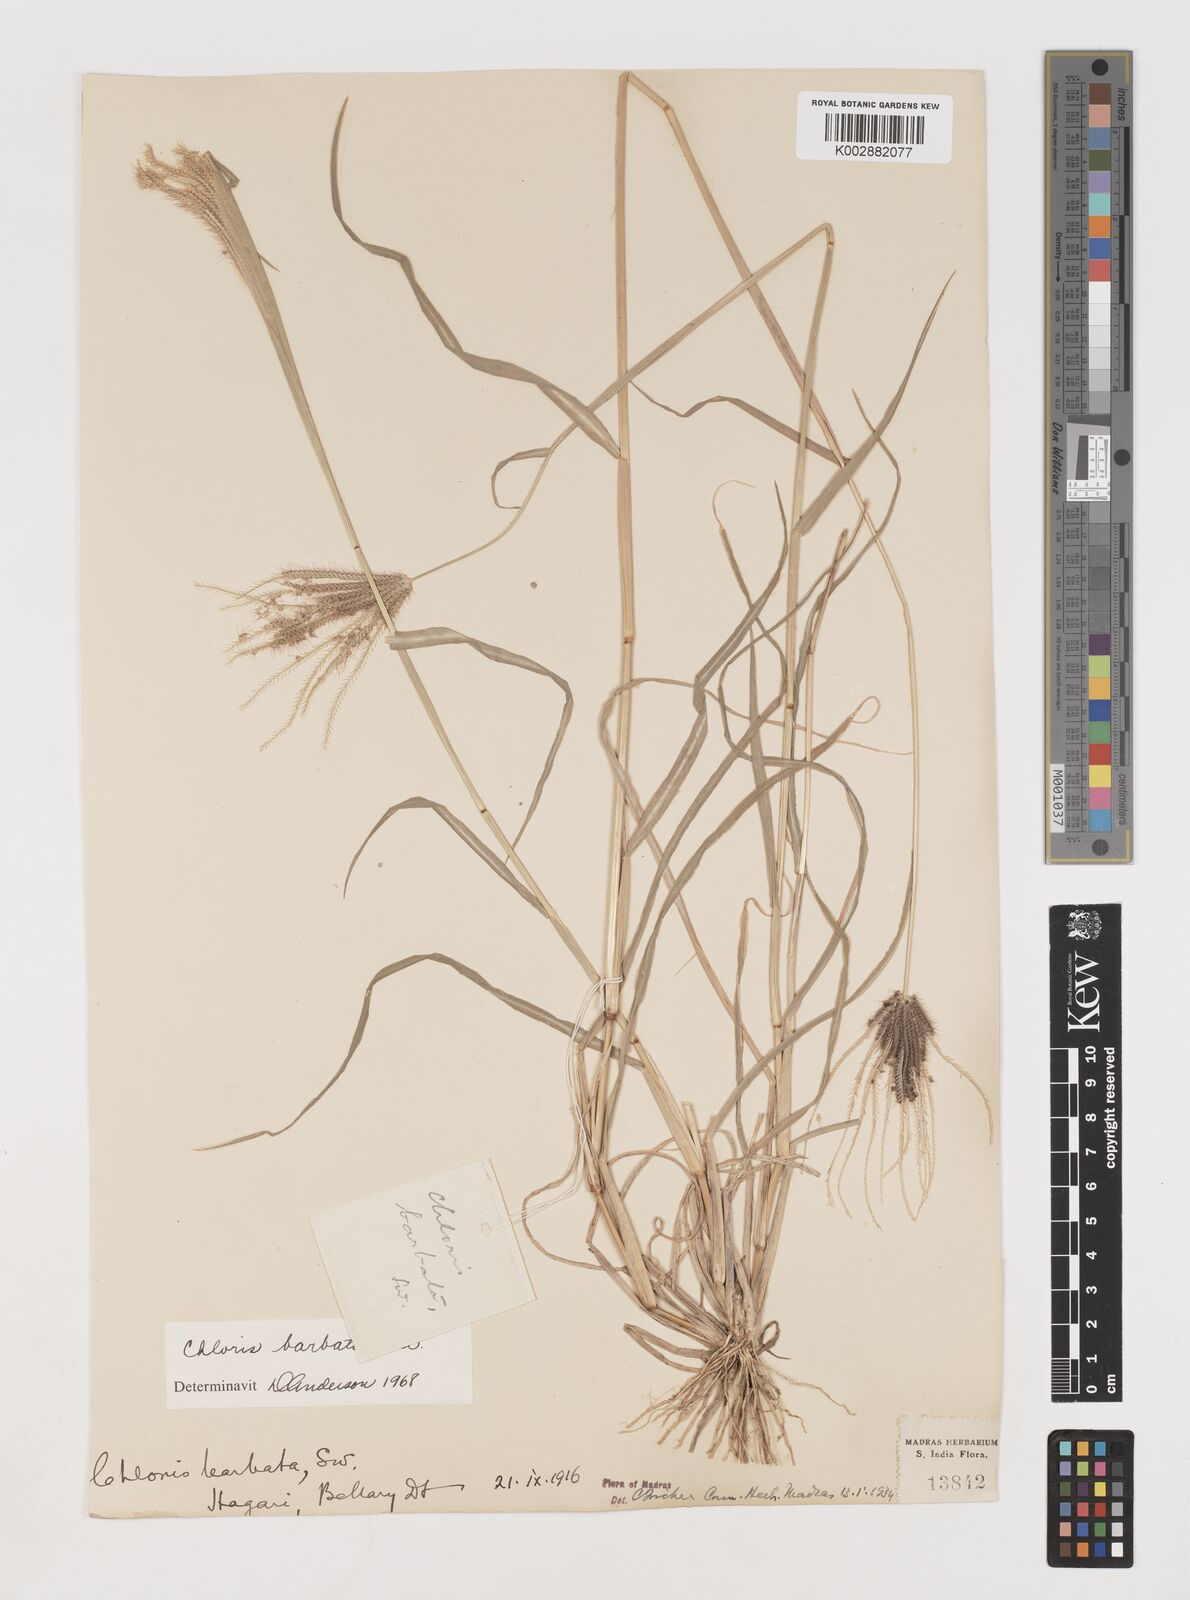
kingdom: Plantae
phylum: Tracheophyta
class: Liliopsida
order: Poales
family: Poaceae
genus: Chloris
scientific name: Chloris barbata
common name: Swollen fingergrass
